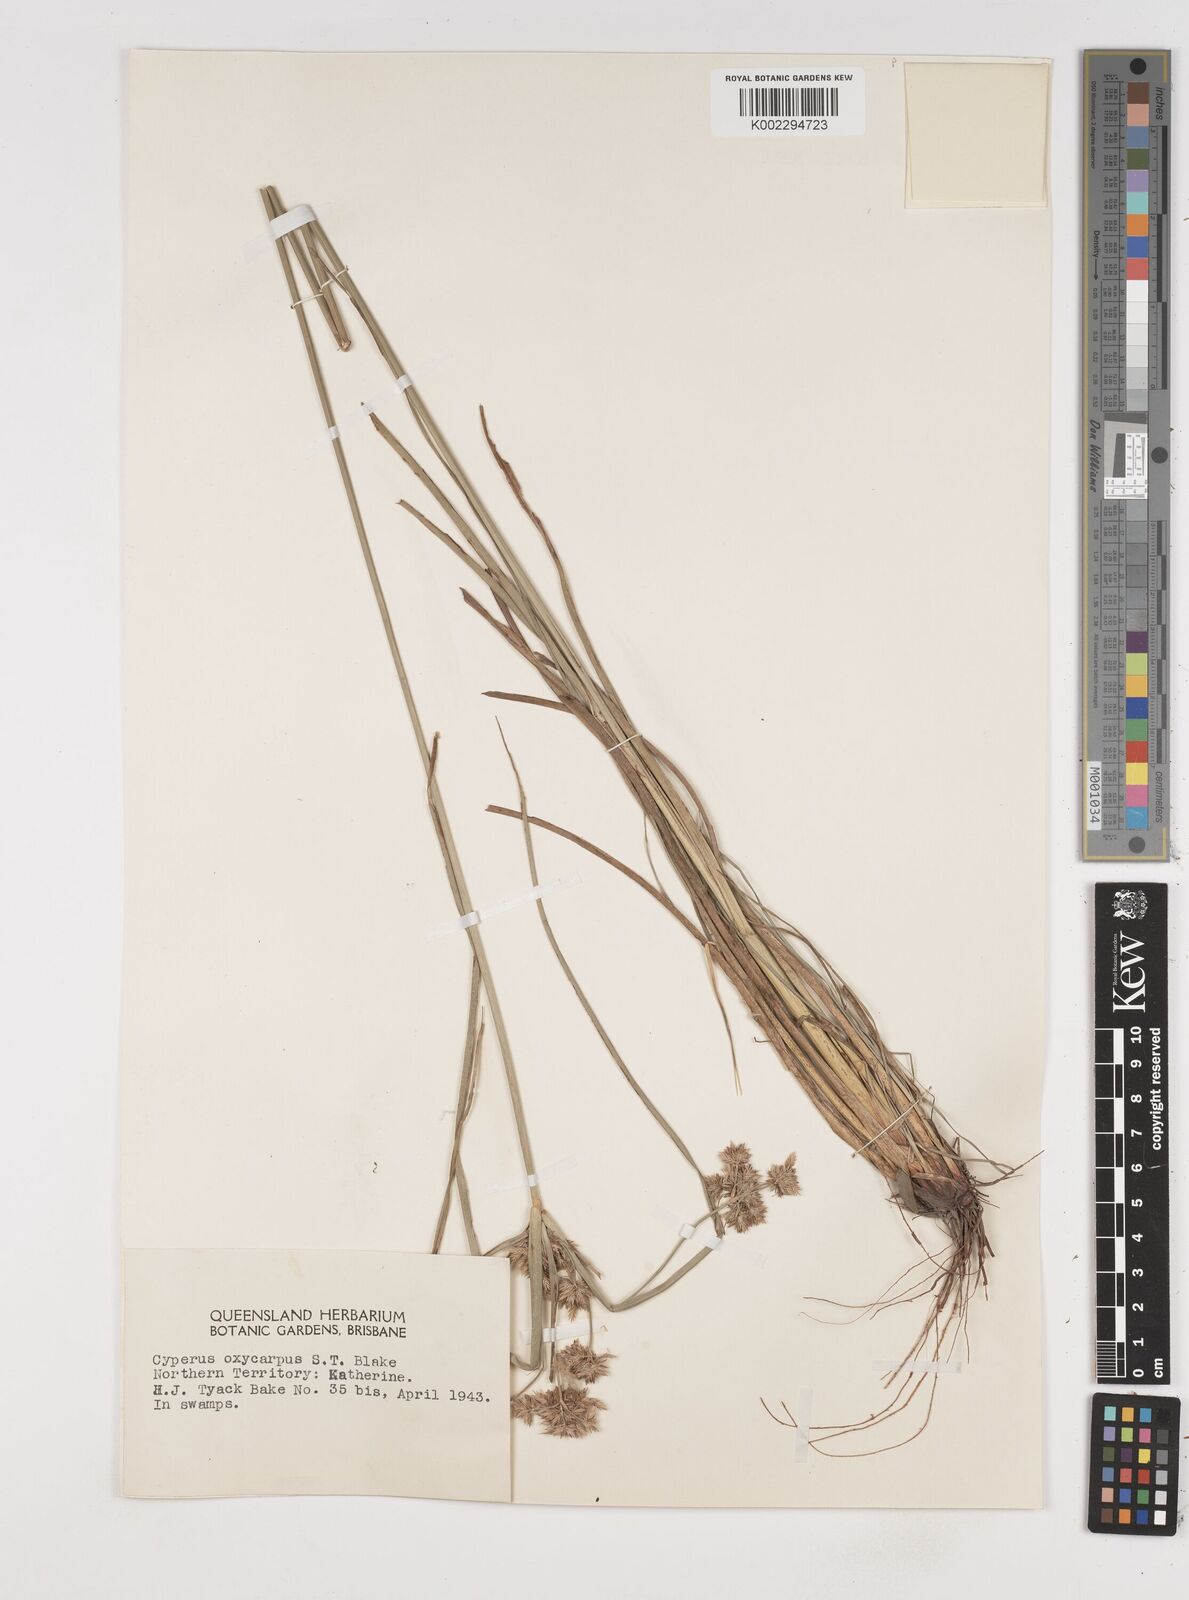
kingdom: Plantae
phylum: Tracheophyta
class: Liliopsida
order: Poales
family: Cyperaceae
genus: Cyperus
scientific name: Cyperus oxycarpus
